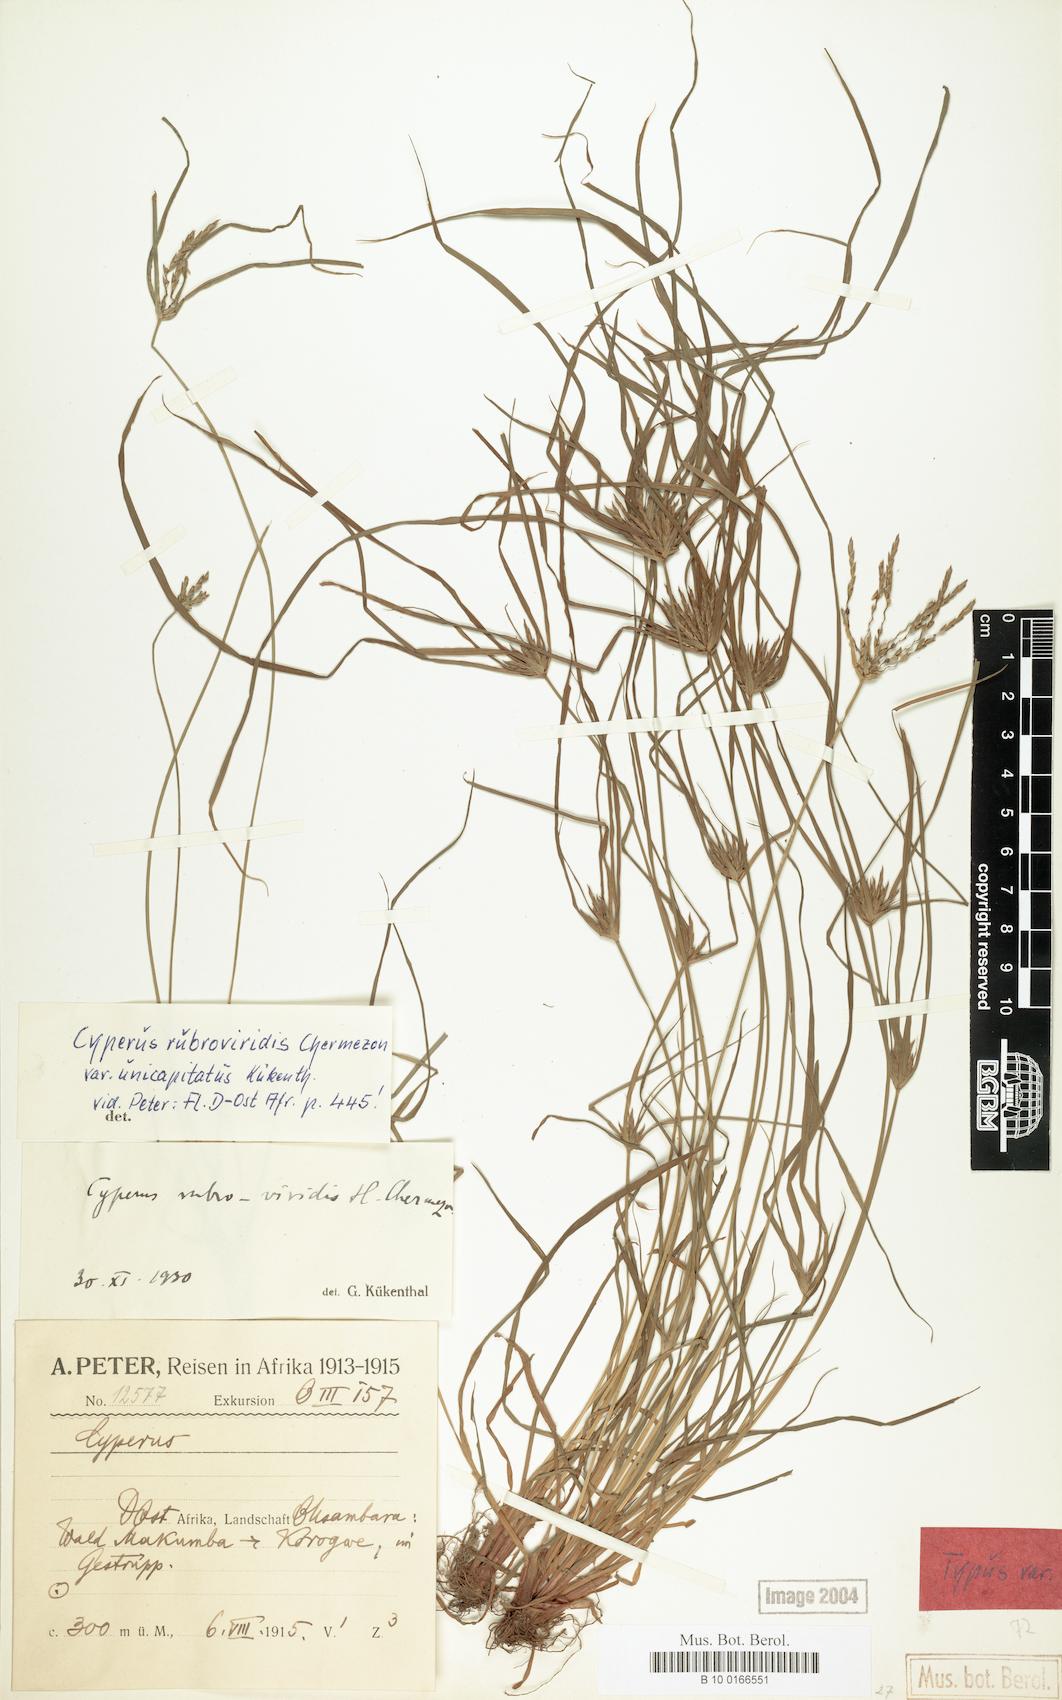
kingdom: Plantae
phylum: Tracheophyta
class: Liliopsida
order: Poales
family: Cyperaceae
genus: Cyperus
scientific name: Cyperus zollingeri
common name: Roadside flatsedge
